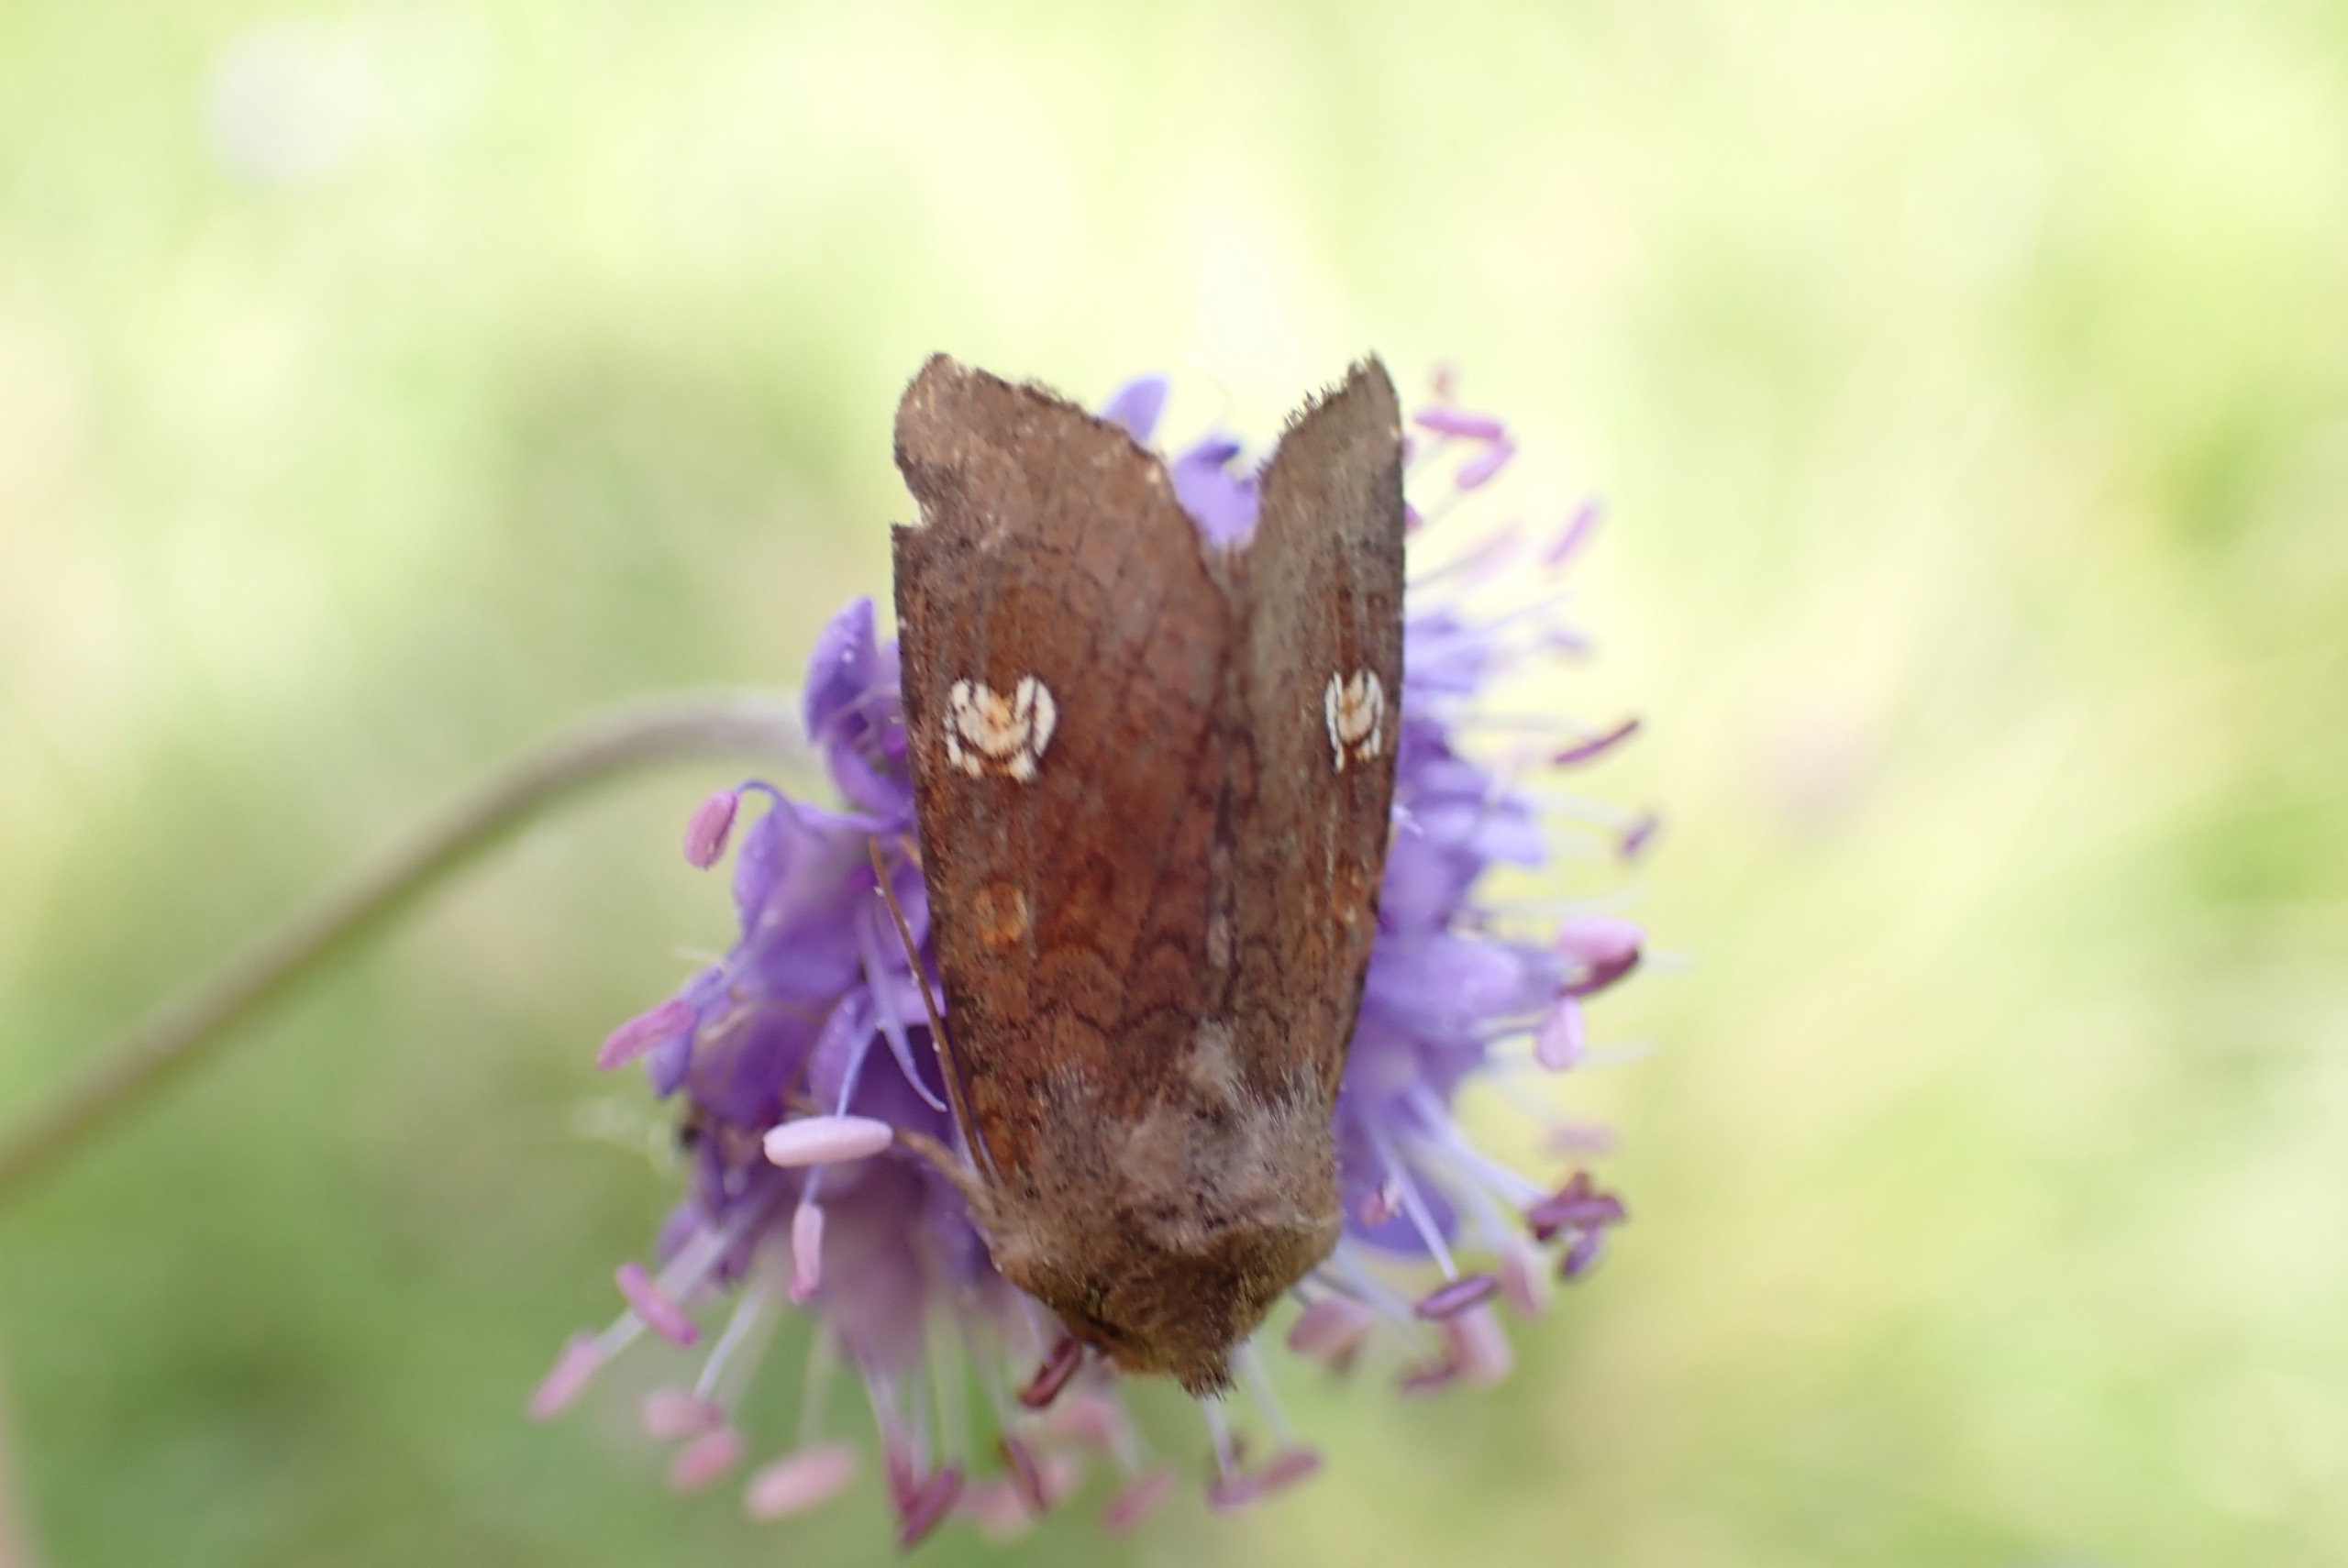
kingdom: Animalia
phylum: Arthropoda
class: Insecta
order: Lepidoptera
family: Noctuidae
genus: Amphipoea
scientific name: Amphipoea oculea
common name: Øje-græsugle
